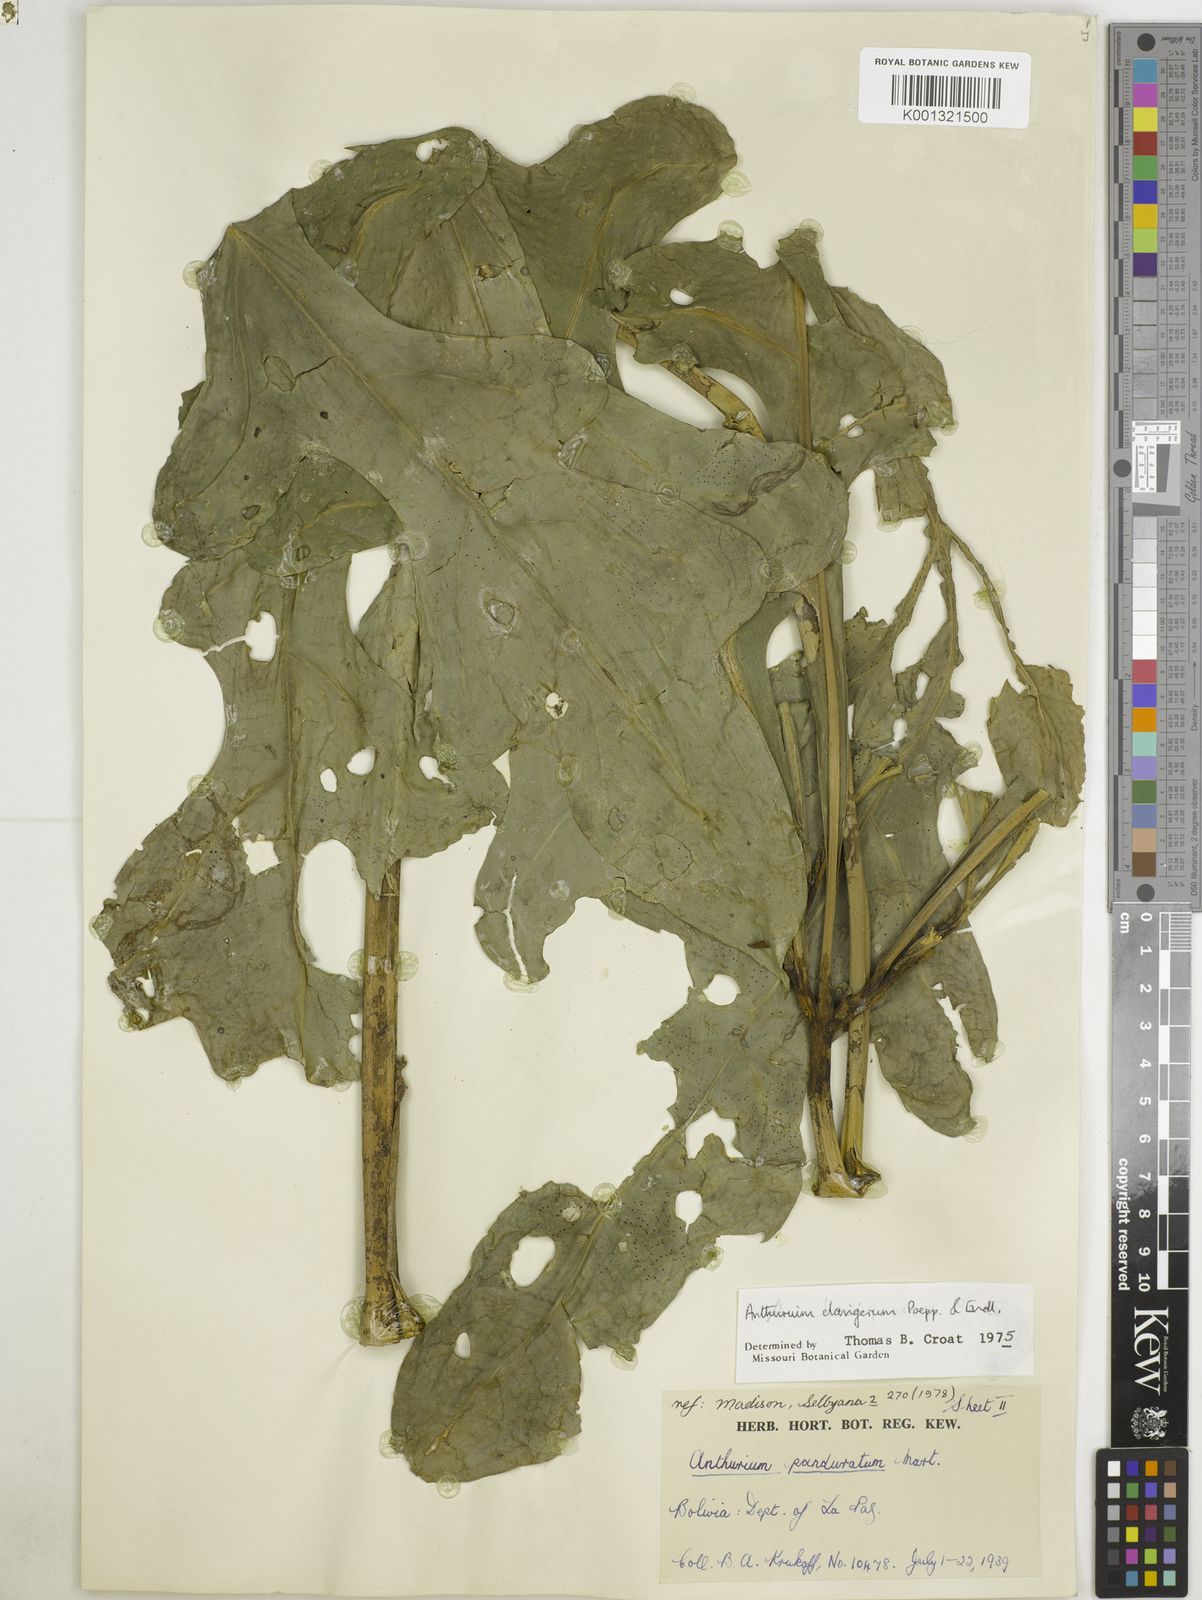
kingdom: Plantae
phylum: Tracheophyta
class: Liliopsida
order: Alismatales
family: Araceae
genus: Anthurium
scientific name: Anthurium clavigerum
